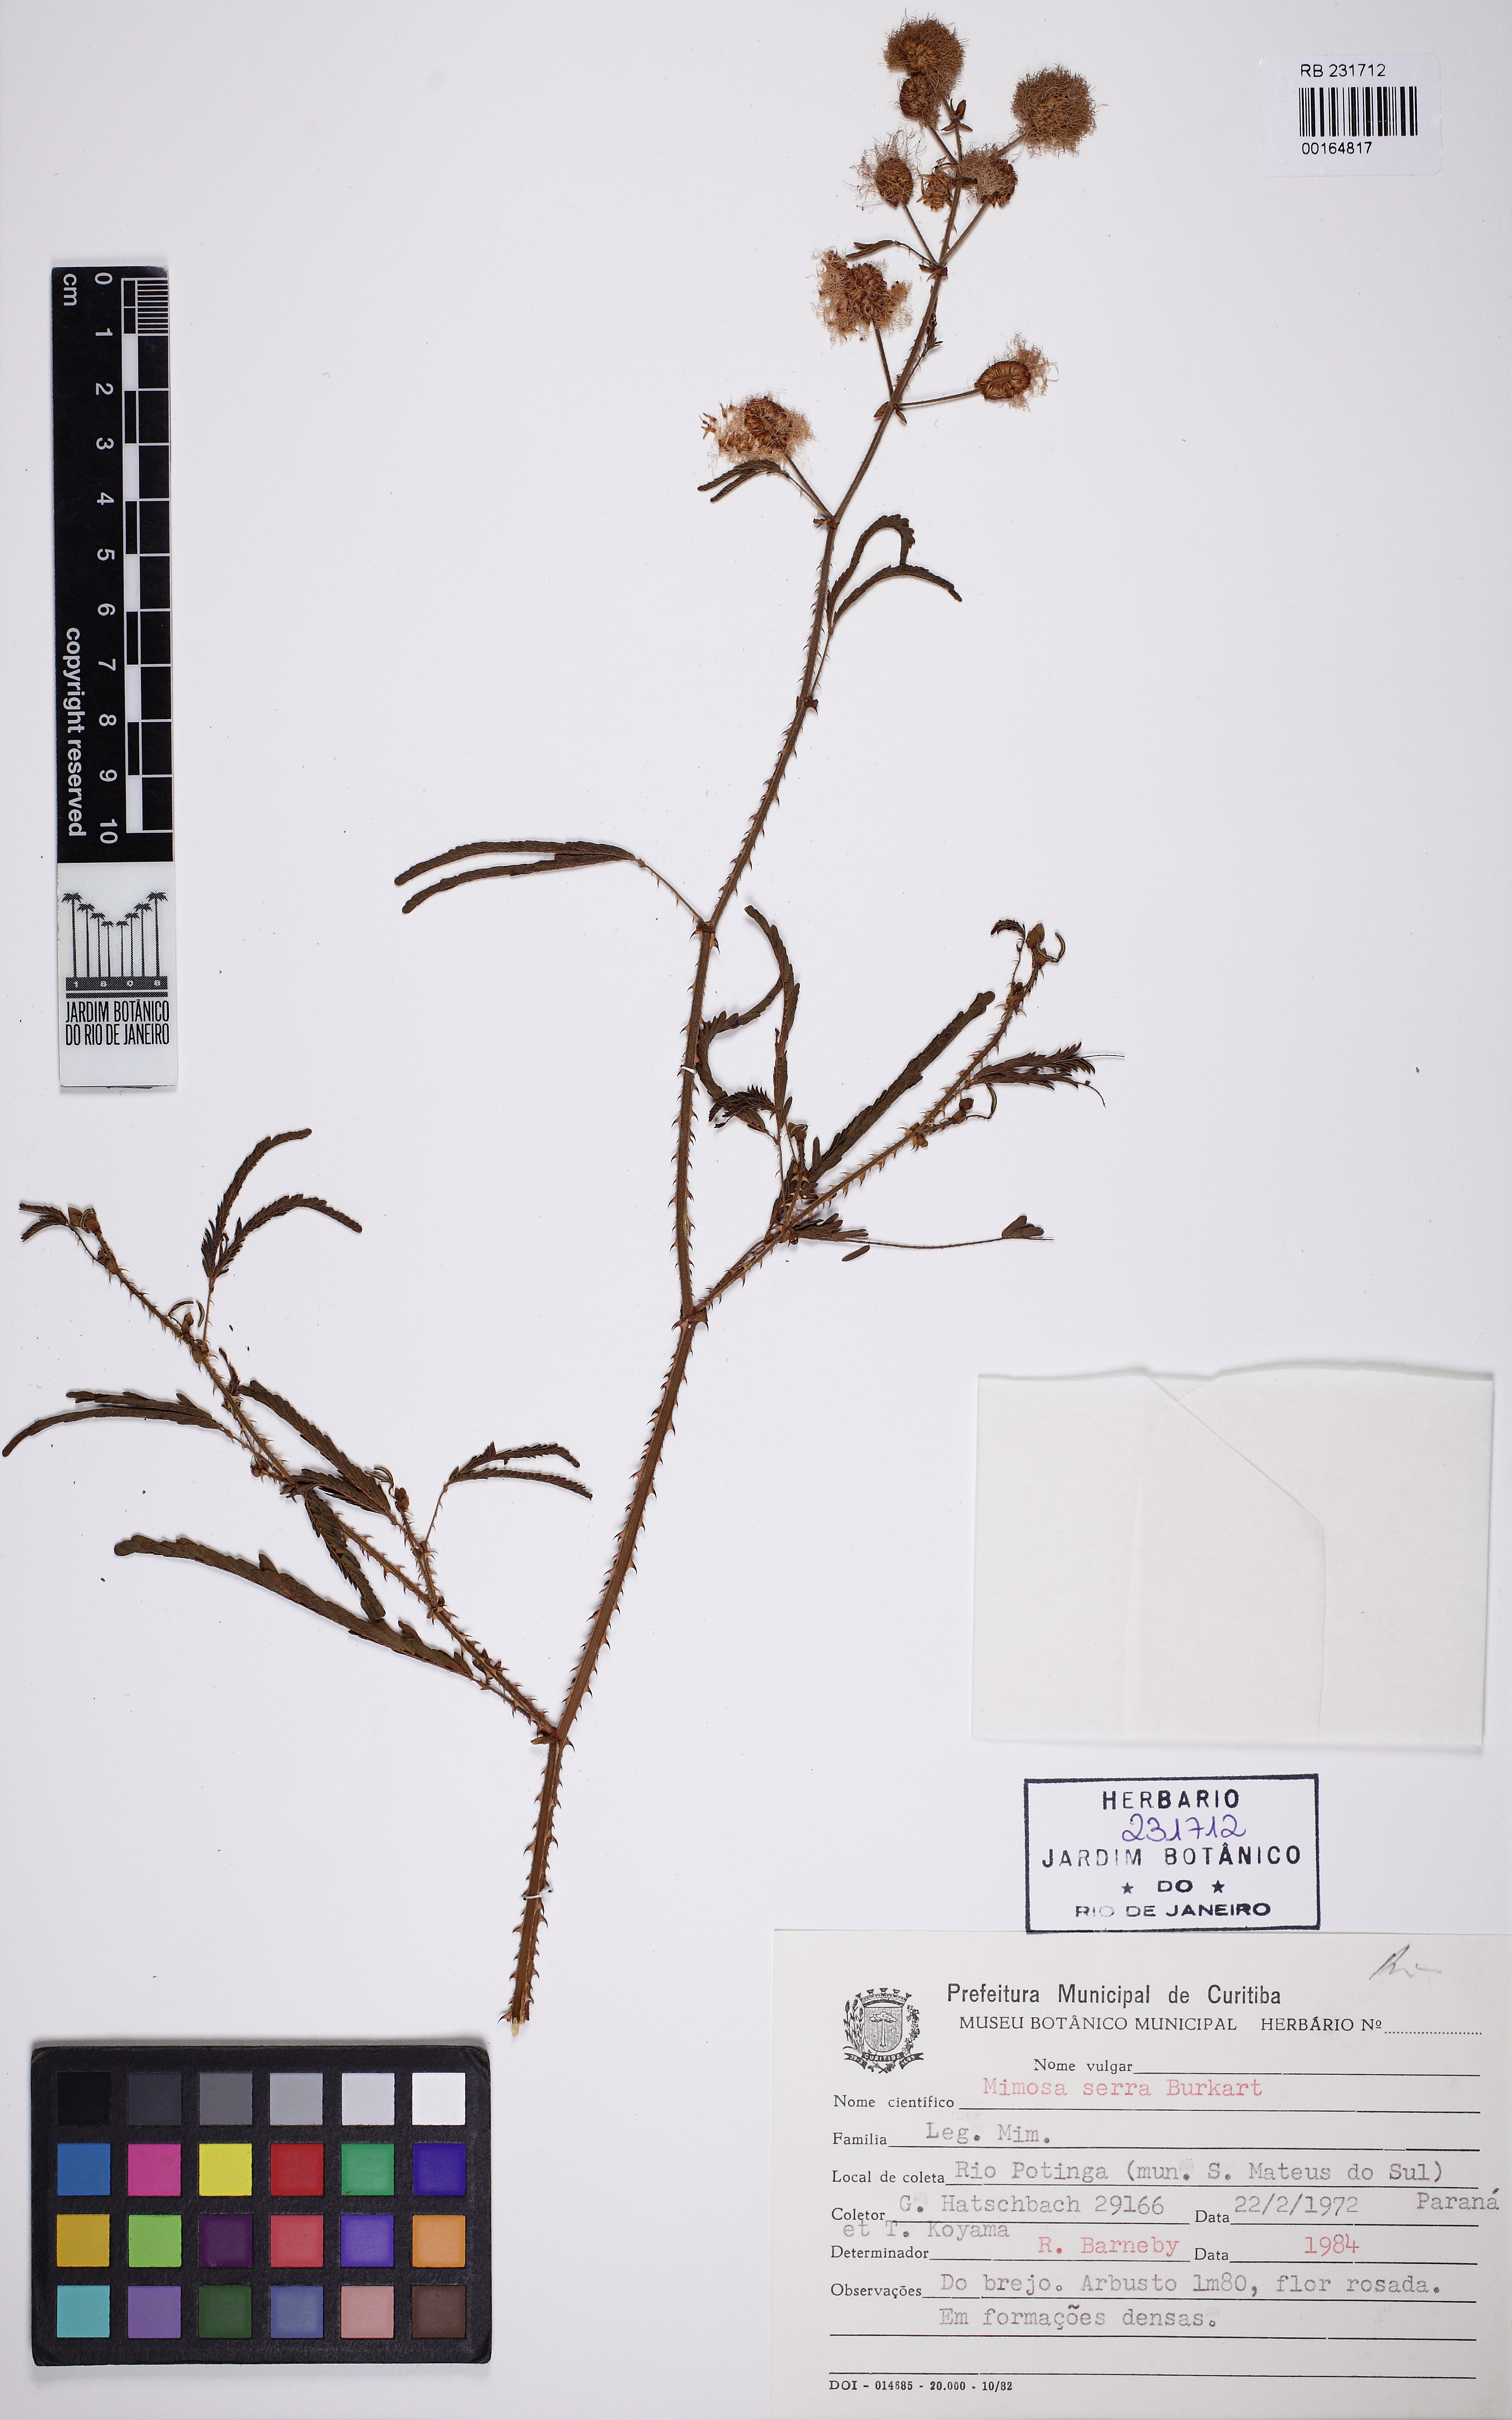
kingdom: Plantae
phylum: Tracheophyta
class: Magnoliopsida
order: Fabales
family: Fabaceae
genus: Mimosa
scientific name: Mimosa serra
